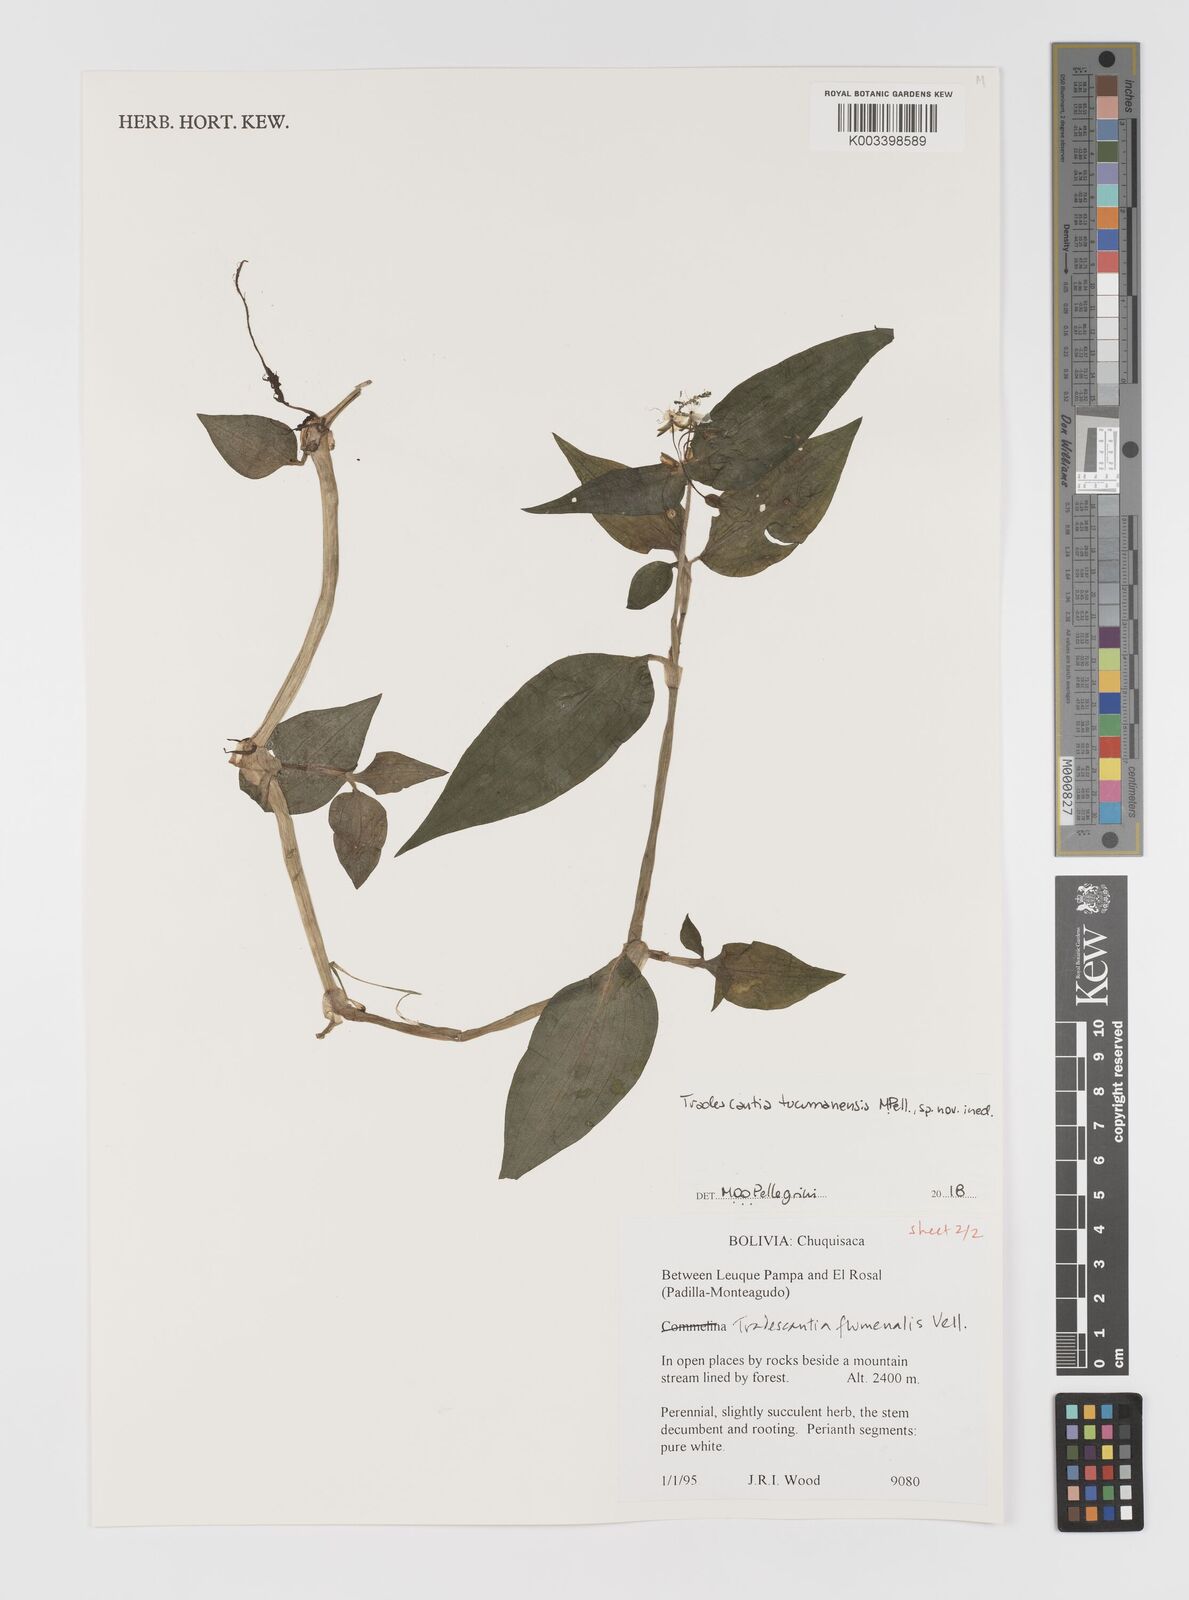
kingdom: Plantae
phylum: Tracheophyta
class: Liliopsida
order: Commelinales
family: Commelinaceae
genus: Tradescantia
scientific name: Tradescantia tucumanensis
